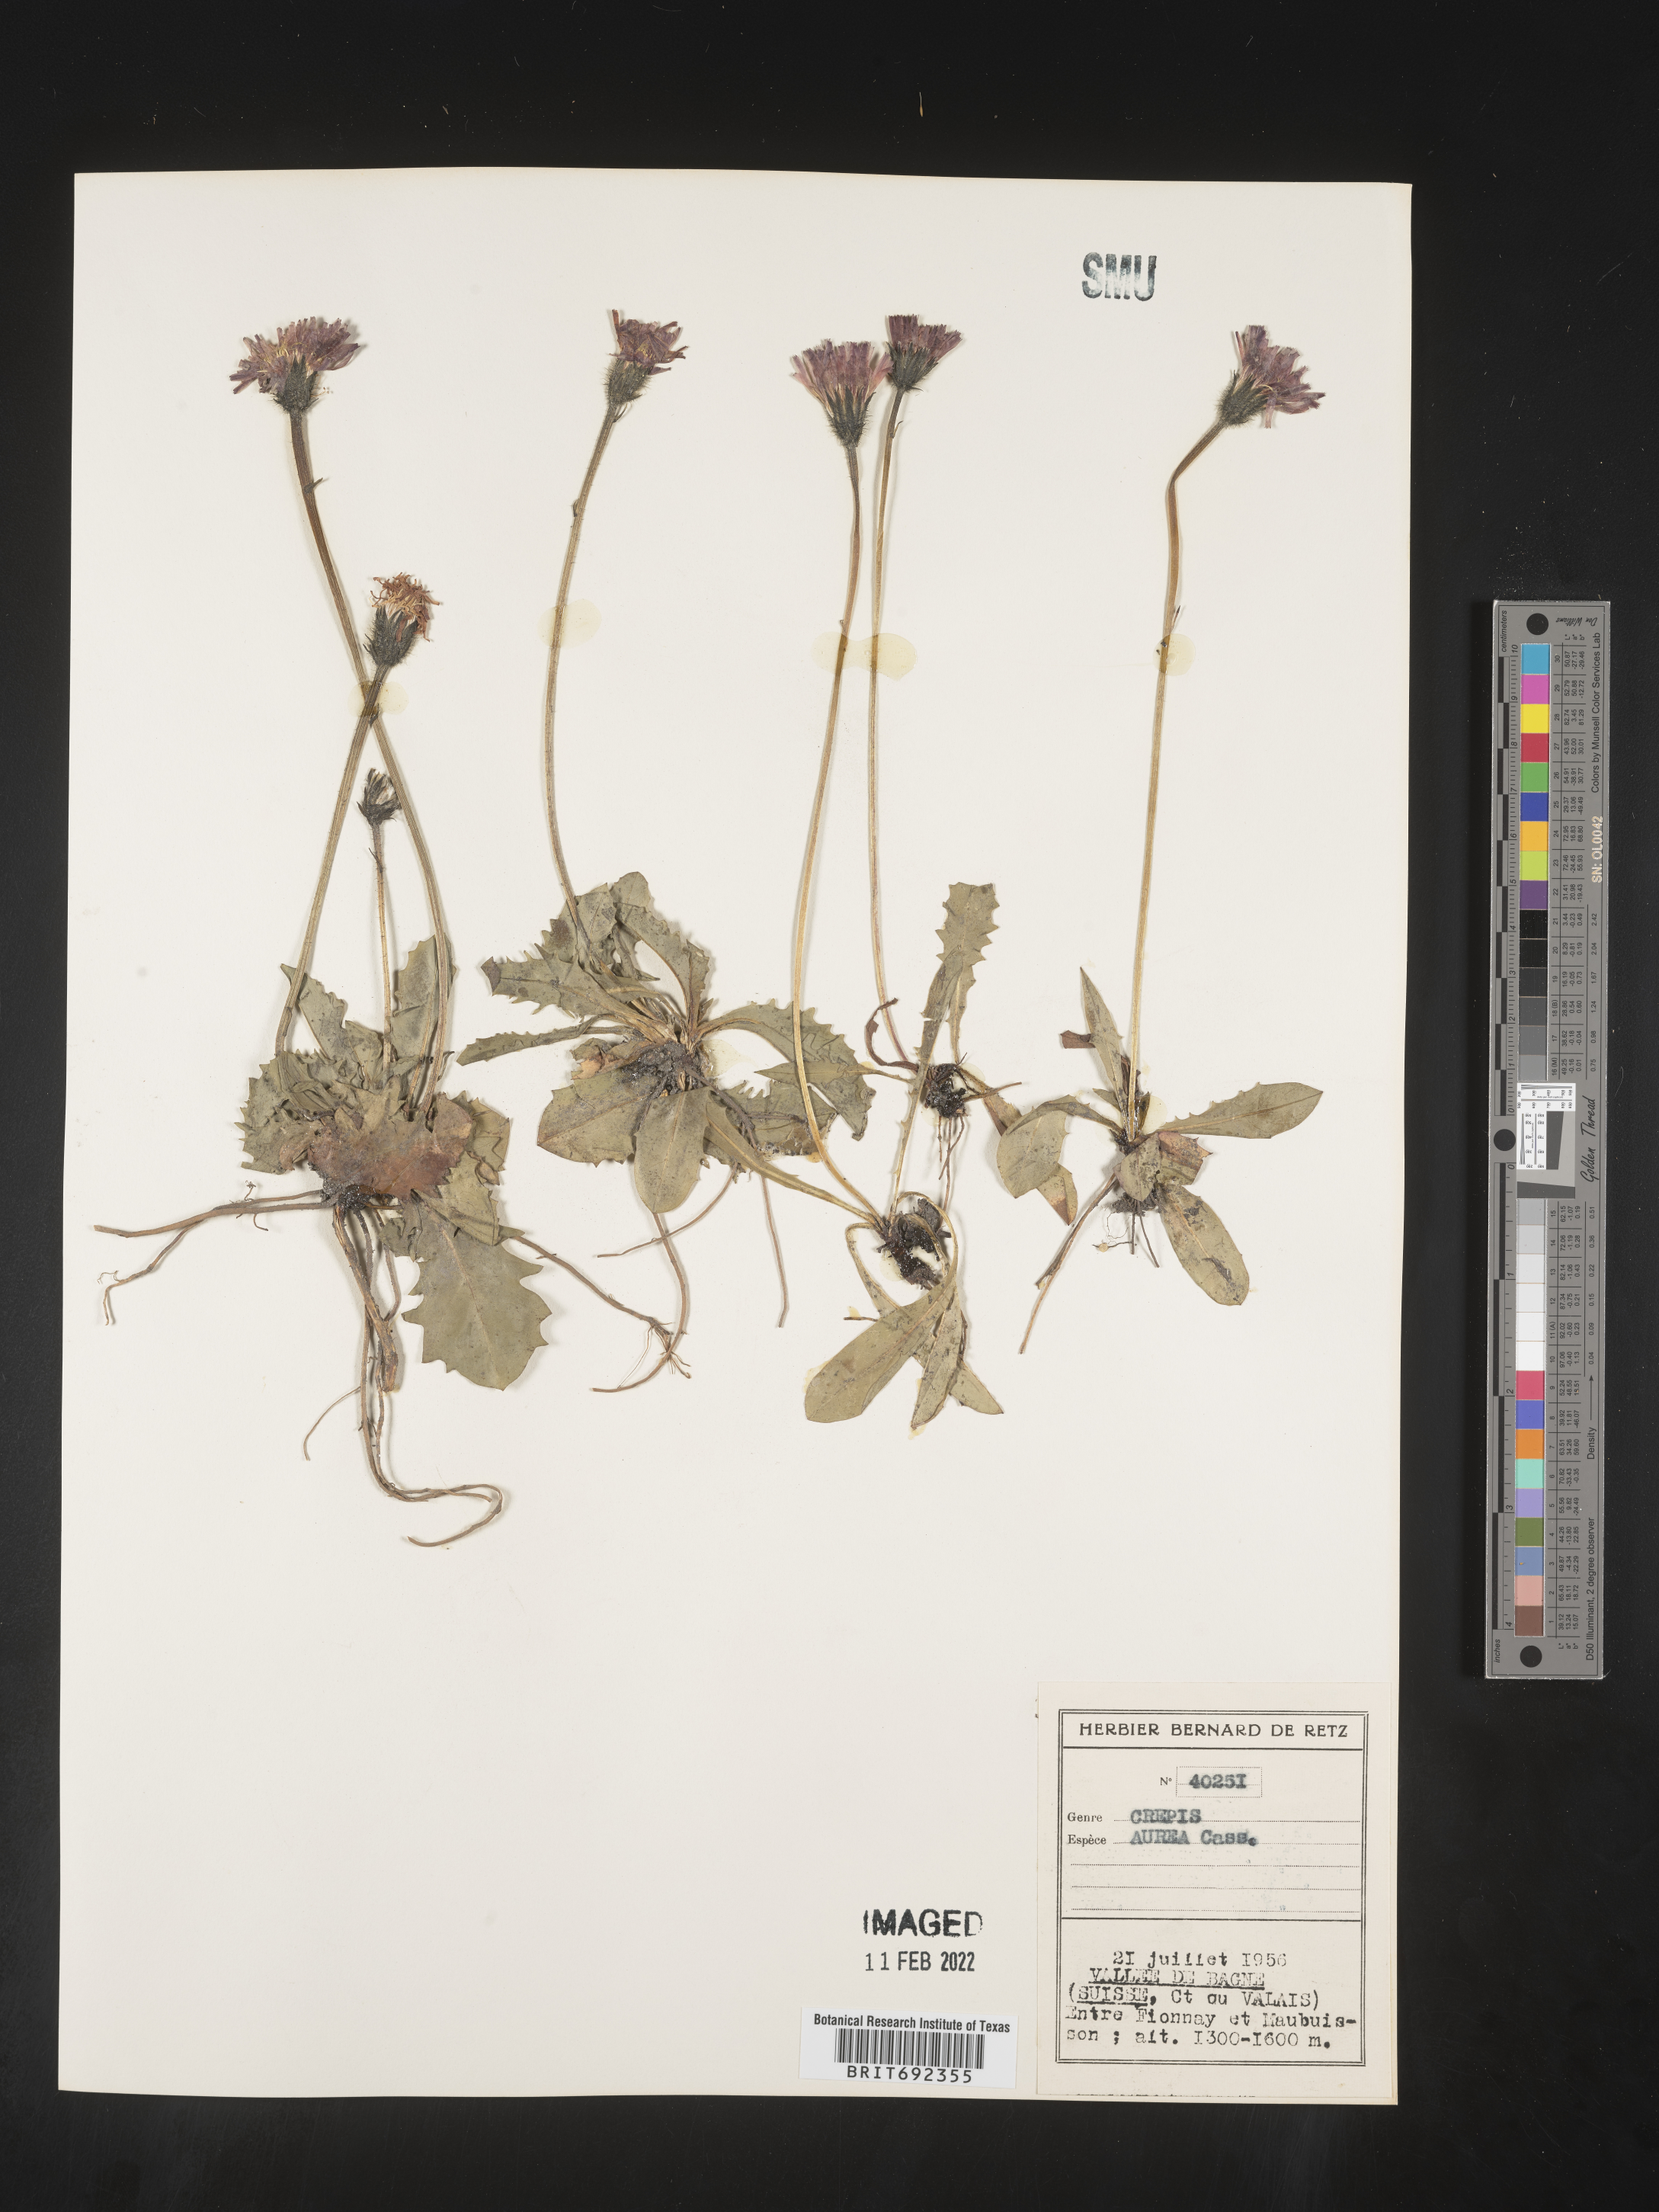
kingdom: Plantae
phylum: Tracheophyta
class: Magnoliopsida
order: Asterales
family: Asteraceae
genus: Crepis
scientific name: Crepis
